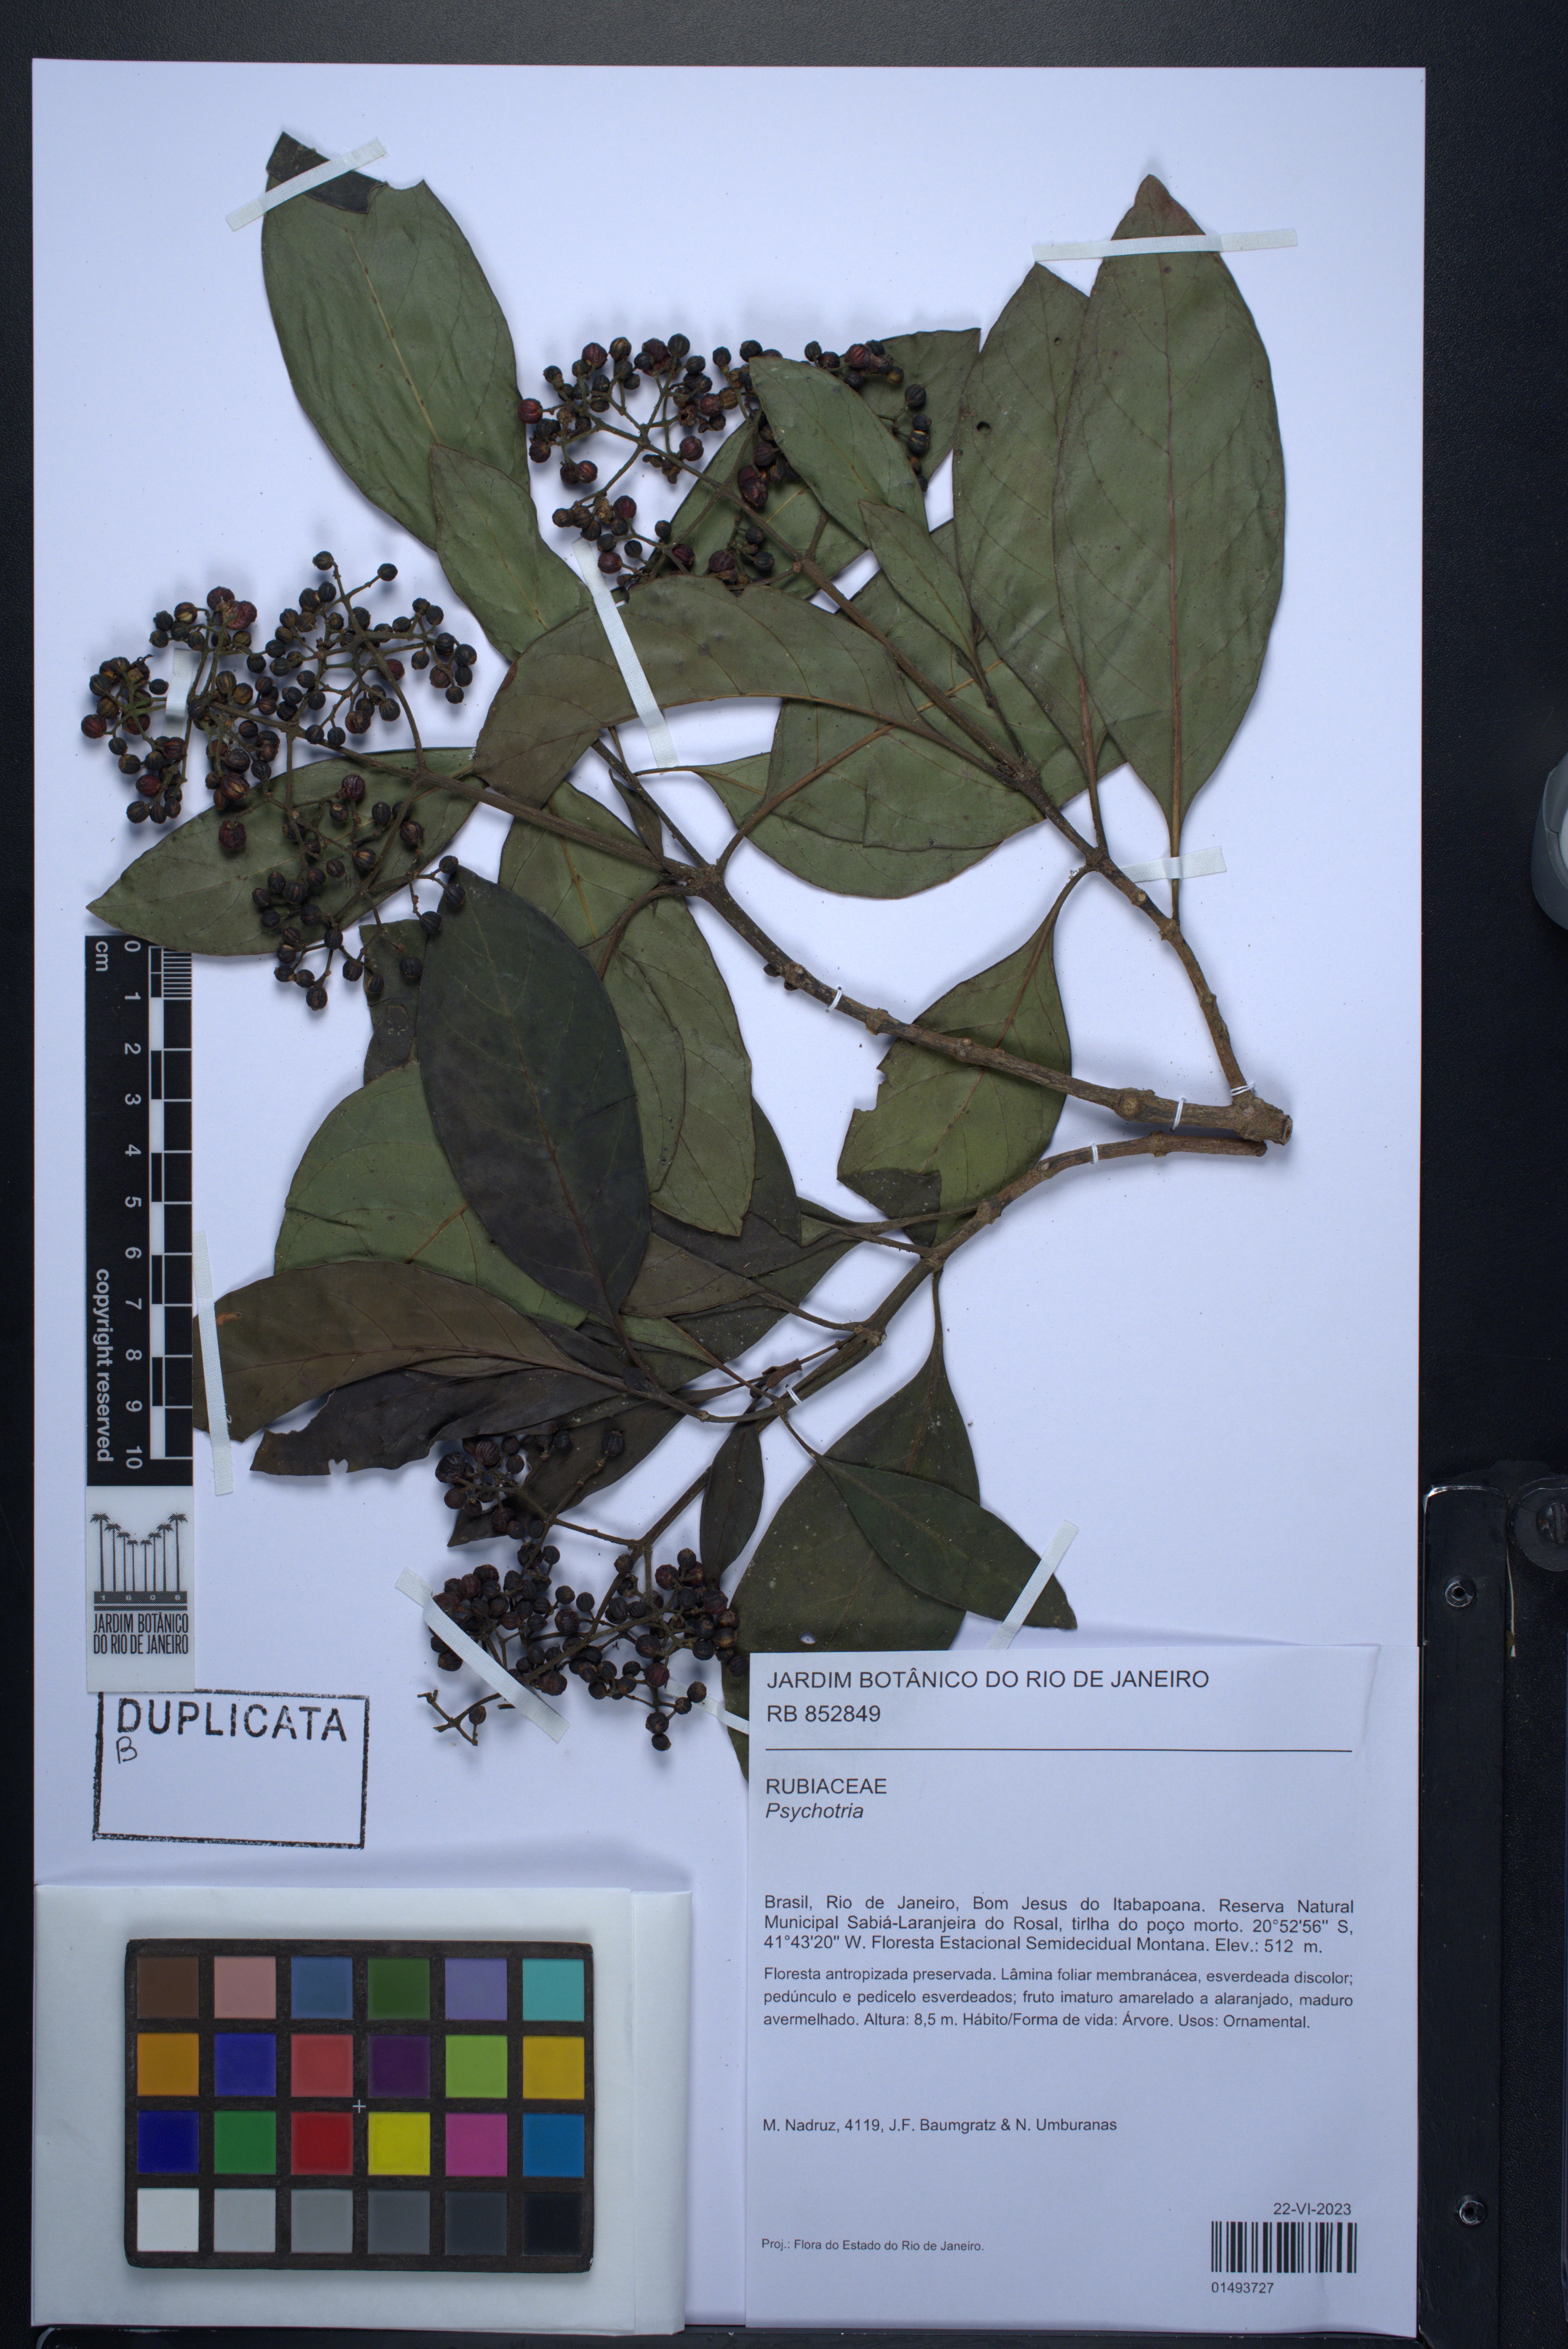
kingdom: Plantae
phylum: Tracheophyta
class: Magnoliopsida
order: Gentianales
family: Rubiaceae
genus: Psychotria
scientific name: Psychotria
